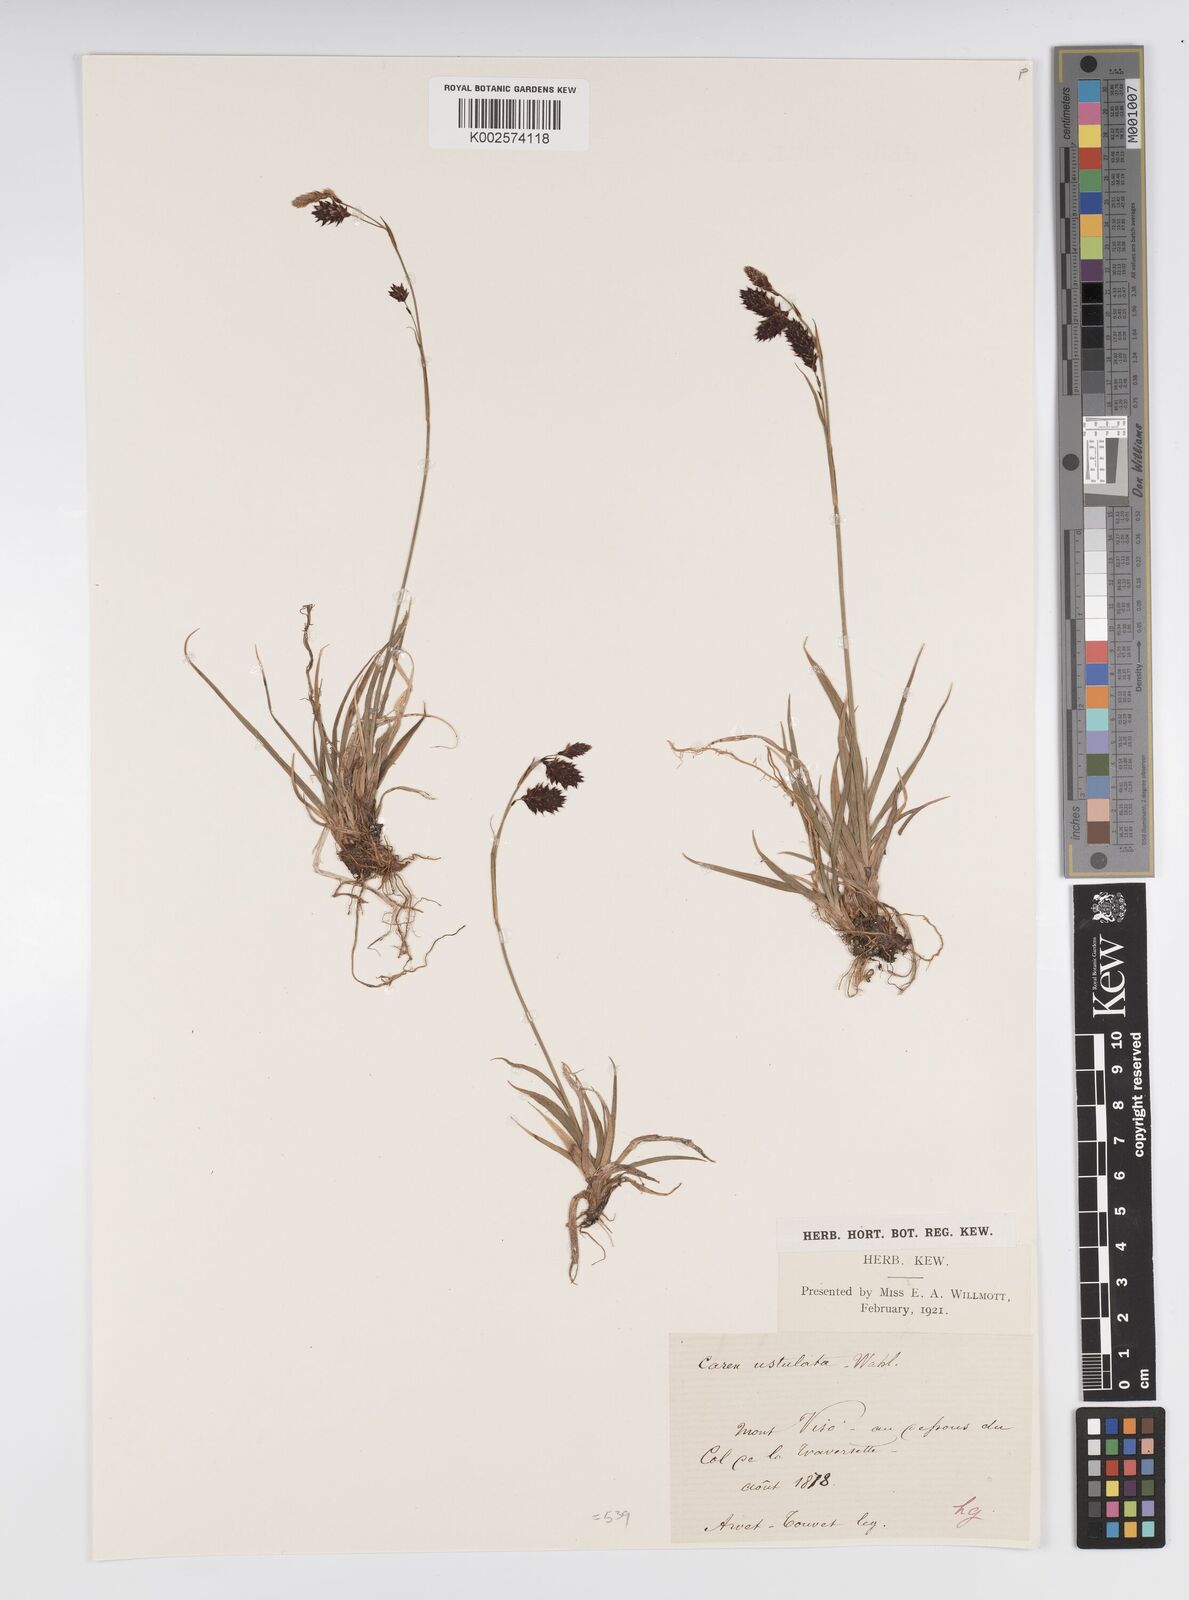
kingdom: Plantae
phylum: Tracheophyta
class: Liliopsida
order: Poales
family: Cyperaceae
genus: Carex
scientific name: Carex atrofusca
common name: Scorched alpine-sedge
